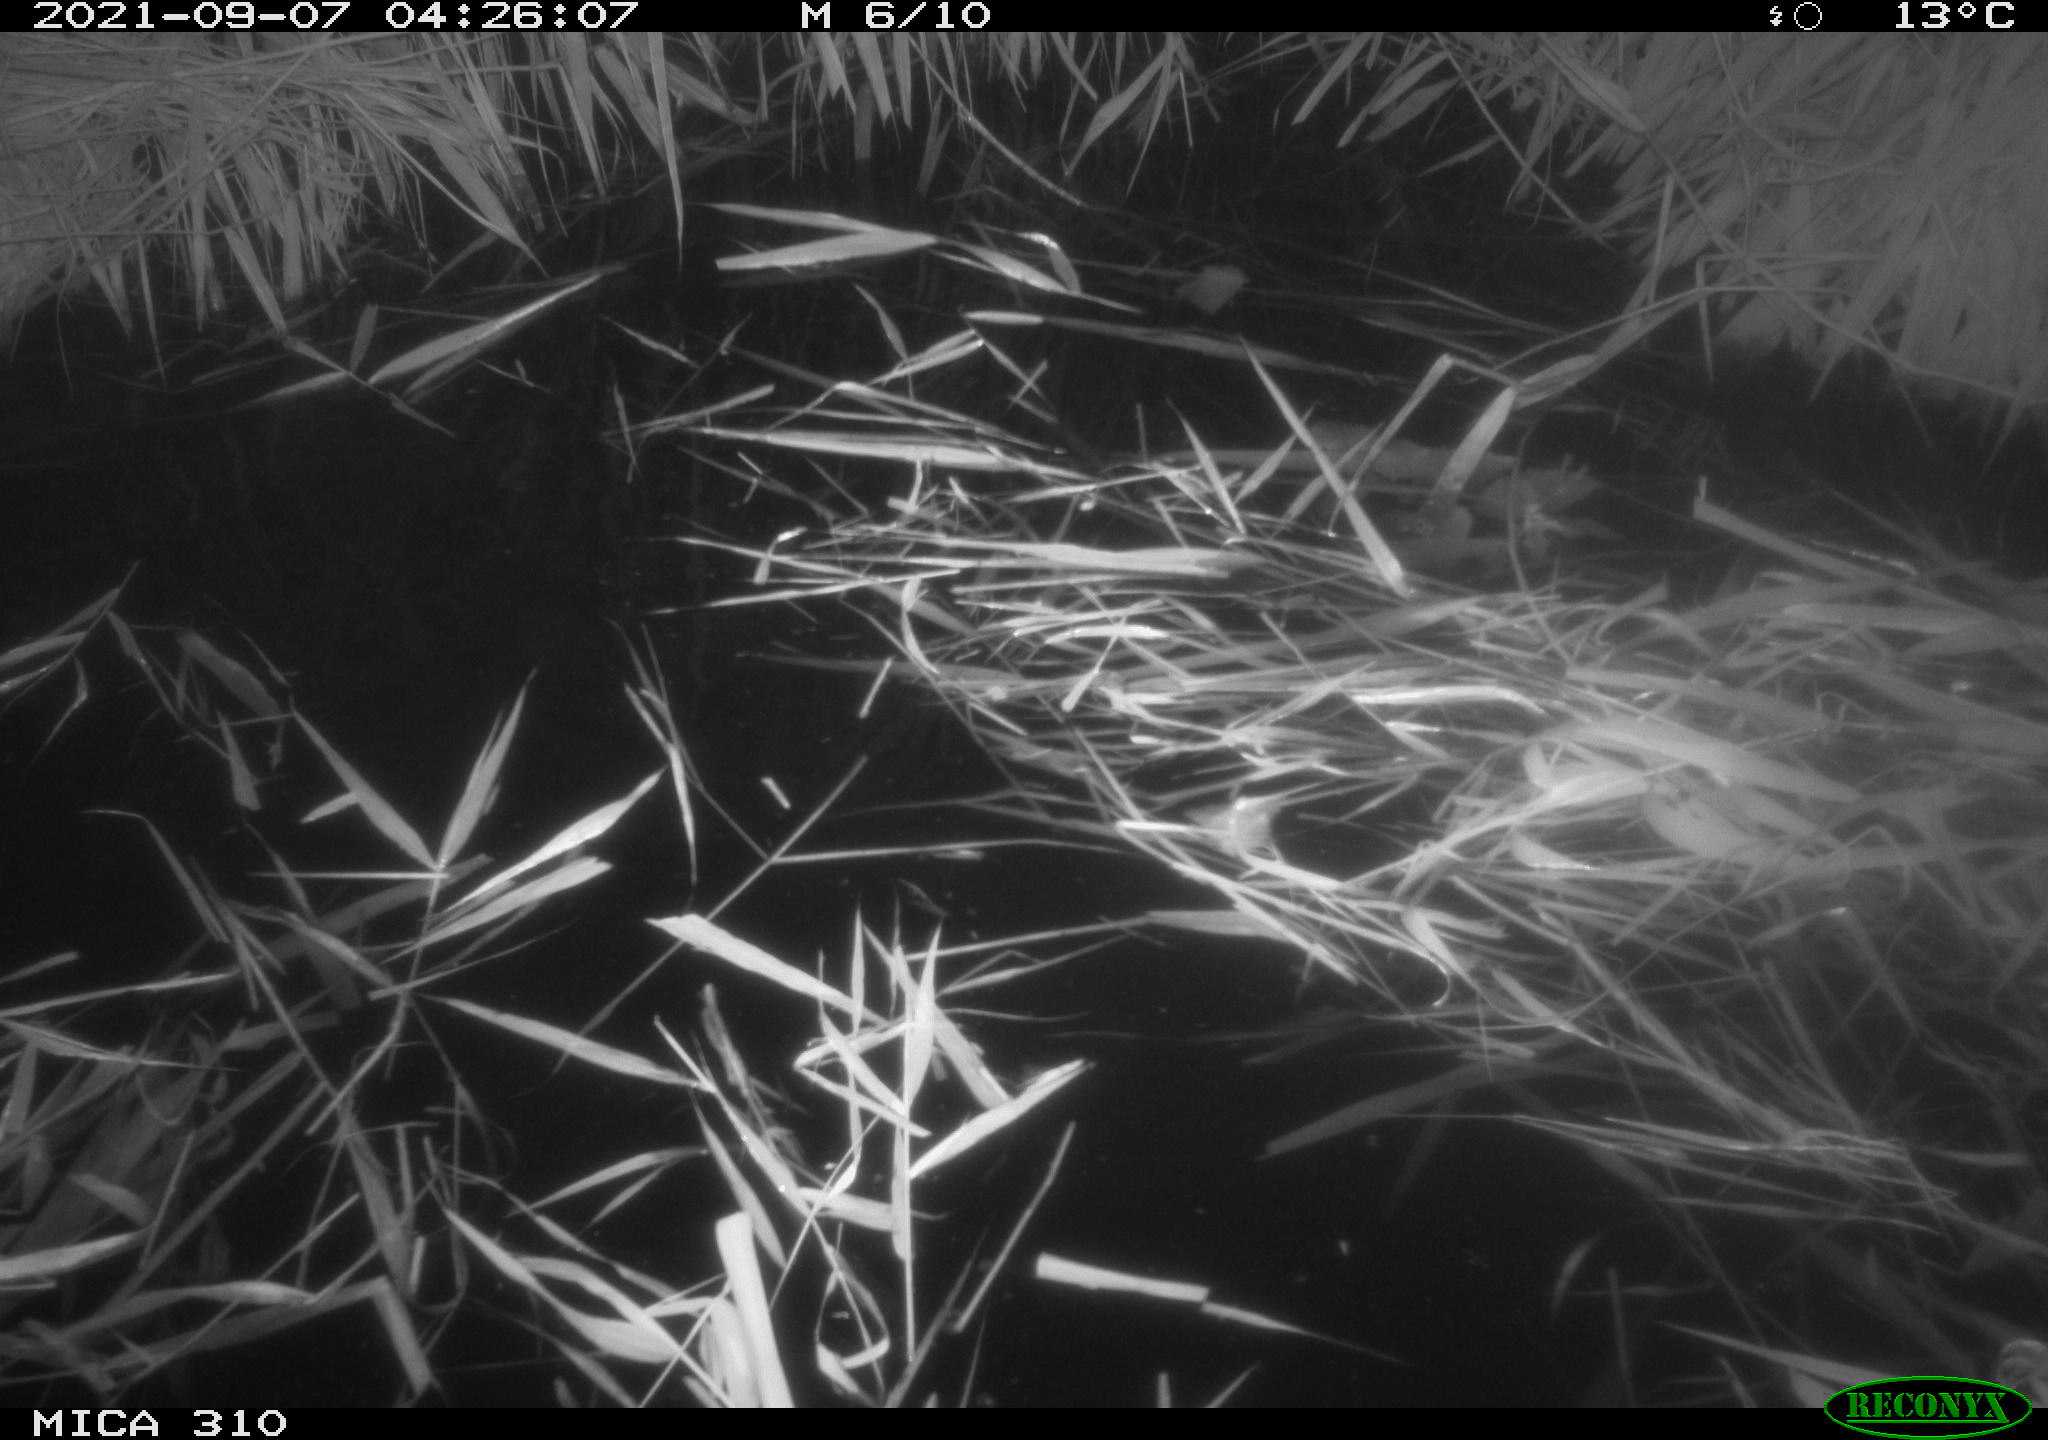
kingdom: Animalia
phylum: Chordata
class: Aves
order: Anseriformes
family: Anatidae
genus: Mareca
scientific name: Mareca strepera
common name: Gadwall
